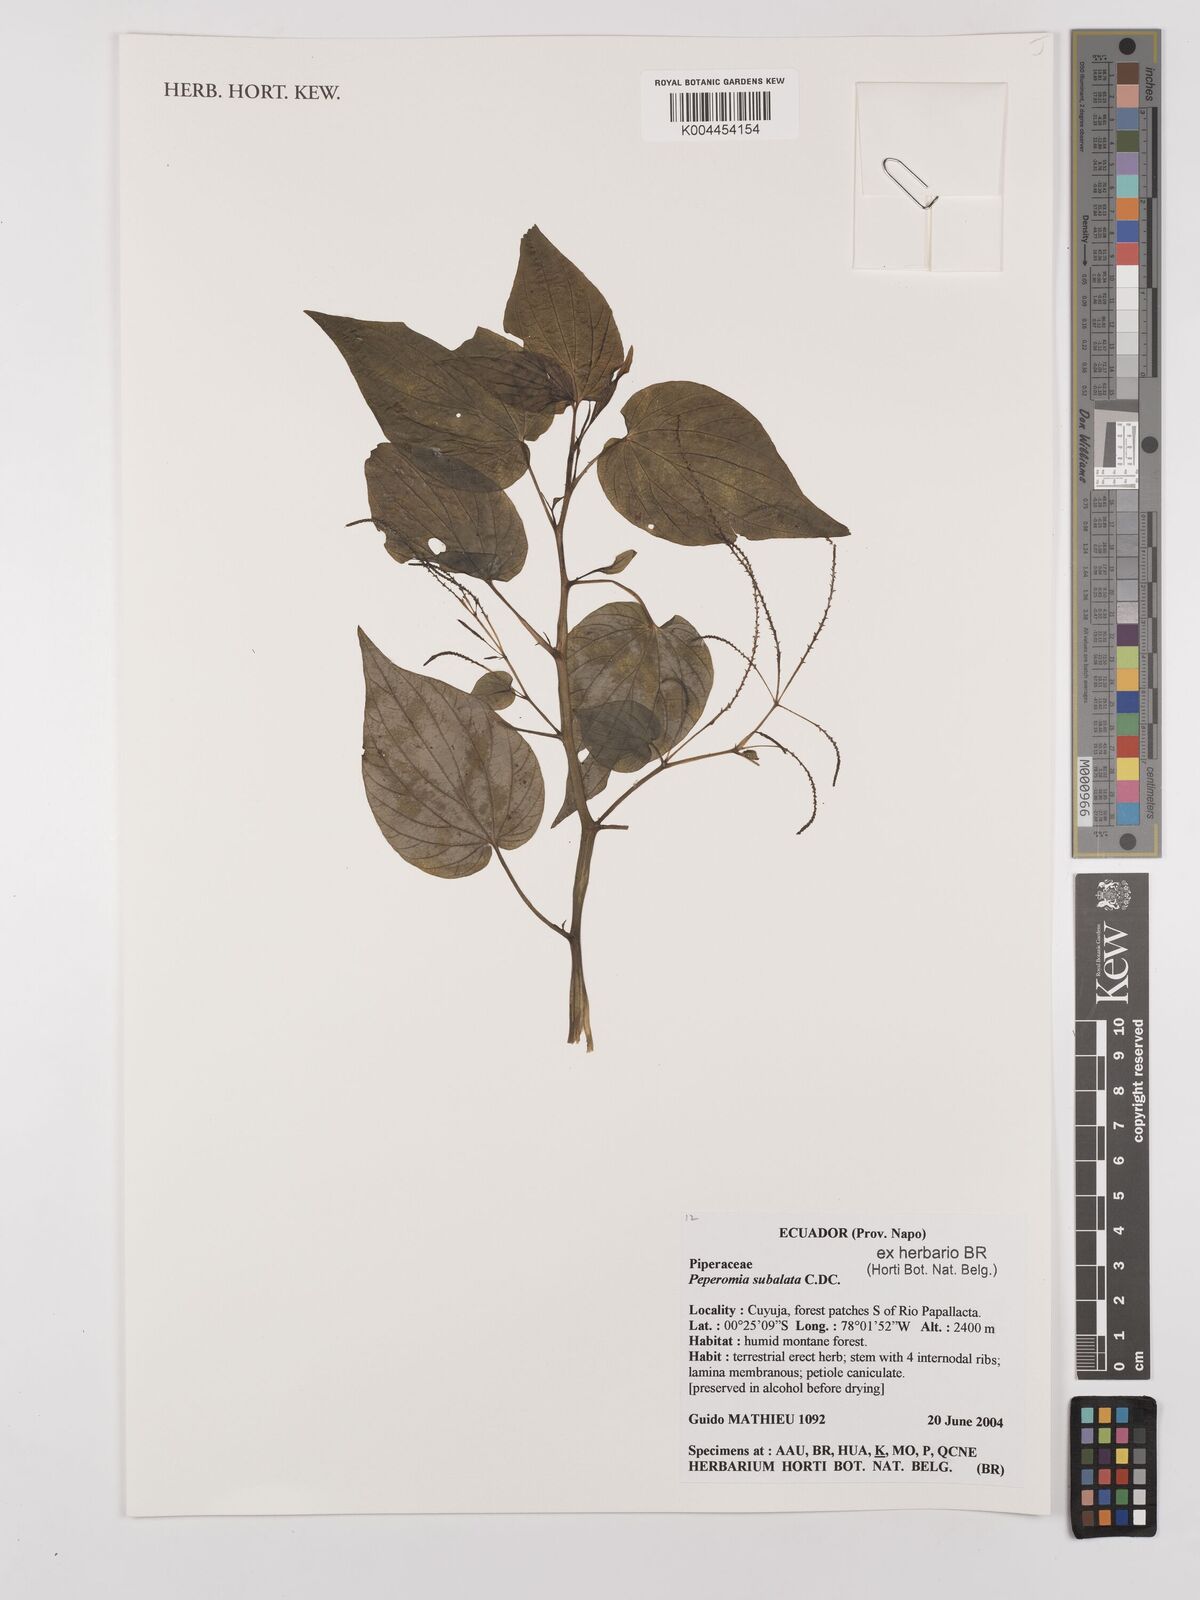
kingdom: Plantae
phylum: Tracheophyta
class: Magnoliopsida
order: Piperales
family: Piperaceae
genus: Peperomia
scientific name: Peperomia subalata
